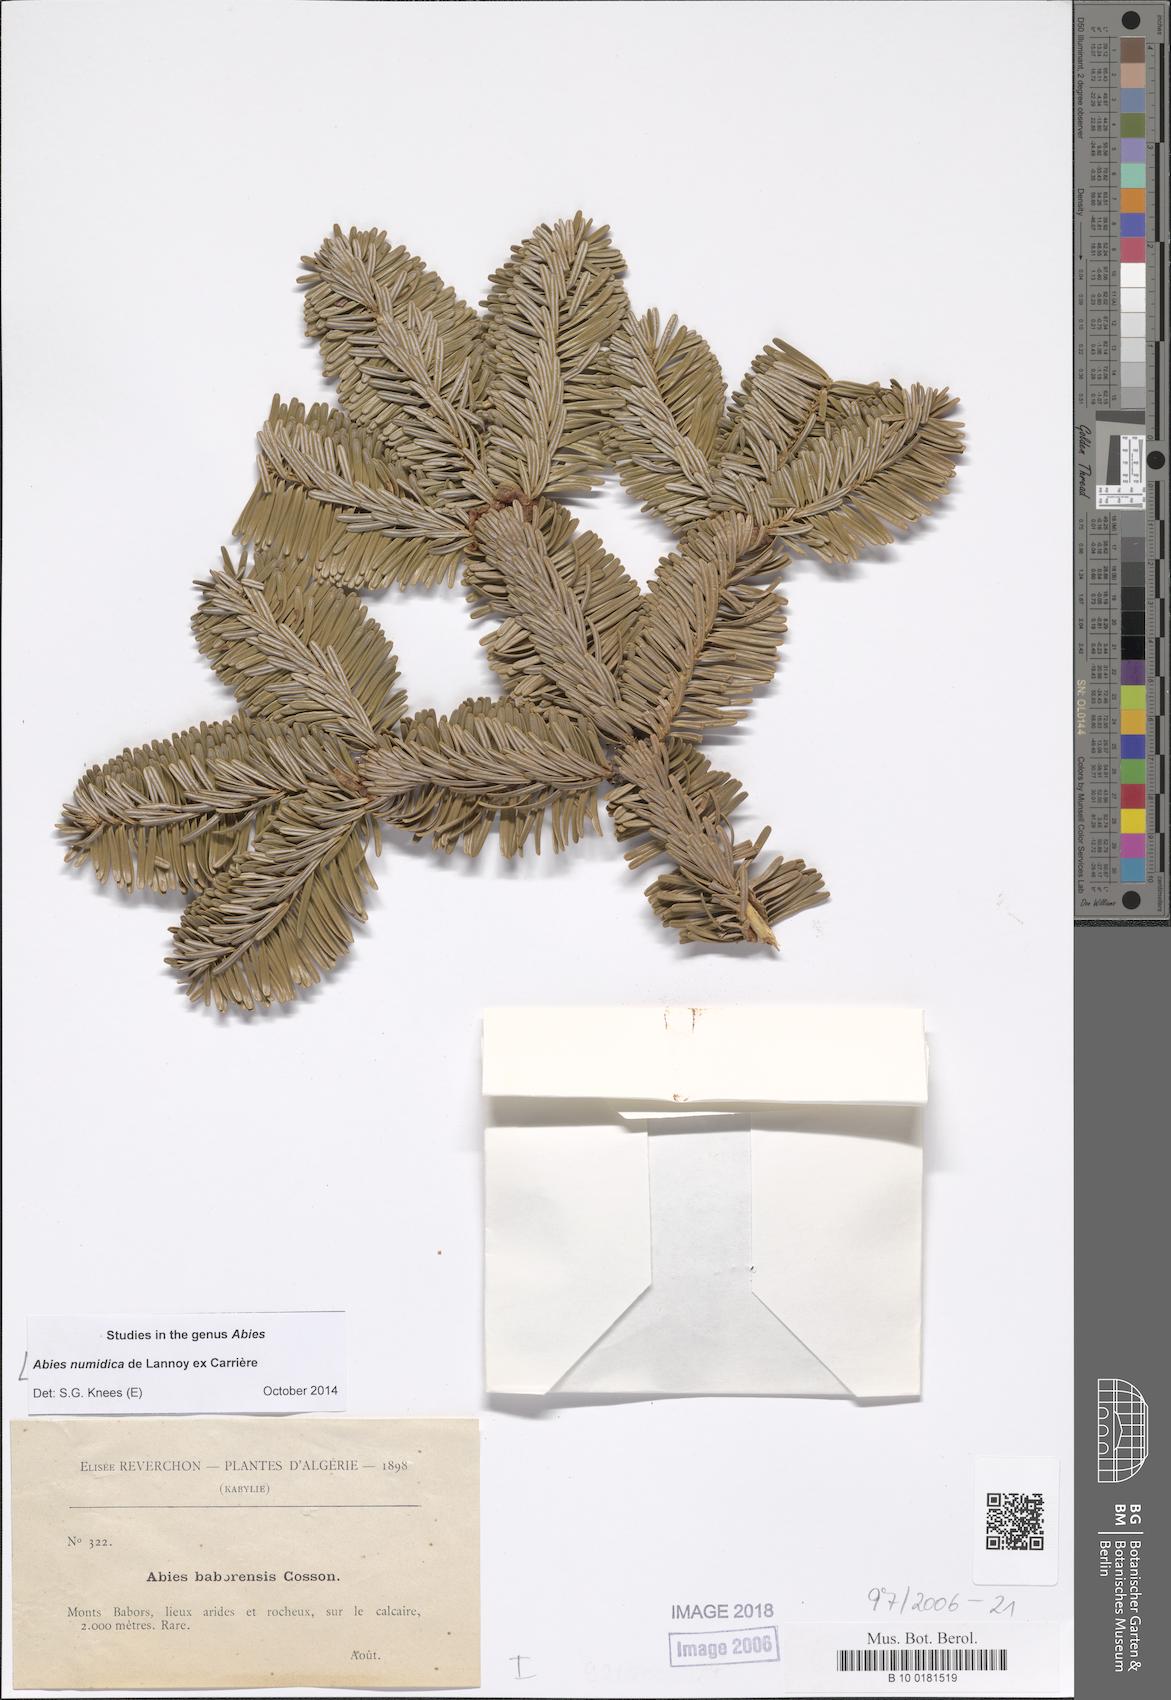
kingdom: Plantae
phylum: Tracheophyta
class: Pinopsida
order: Pinales
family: Pinaceae
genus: Abies
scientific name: Abies numidica
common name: Algerian fir
